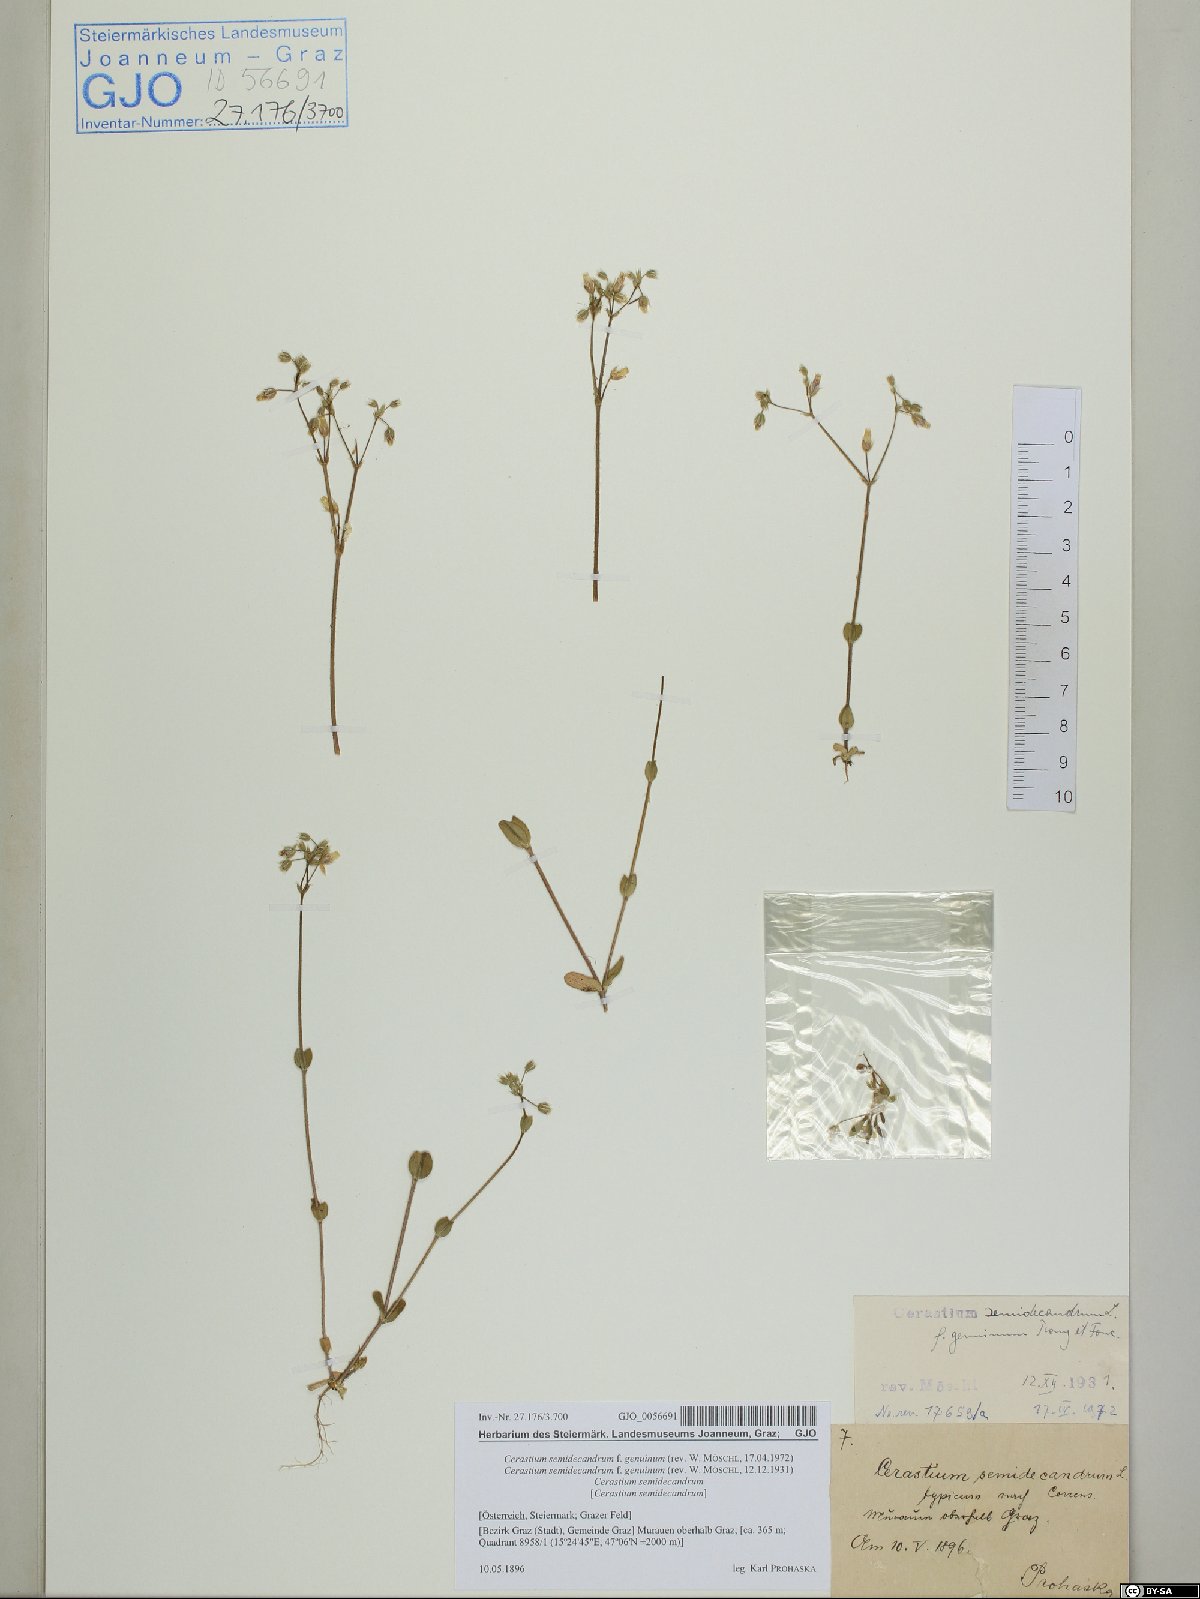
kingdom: Plantae
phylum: Tracheophyta
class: Magnoliopsida
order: Caryophyllales
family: Caryophyllaceae
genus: Cerastium
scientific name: Cerastium semidecandrum
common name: Little mouse-ear
